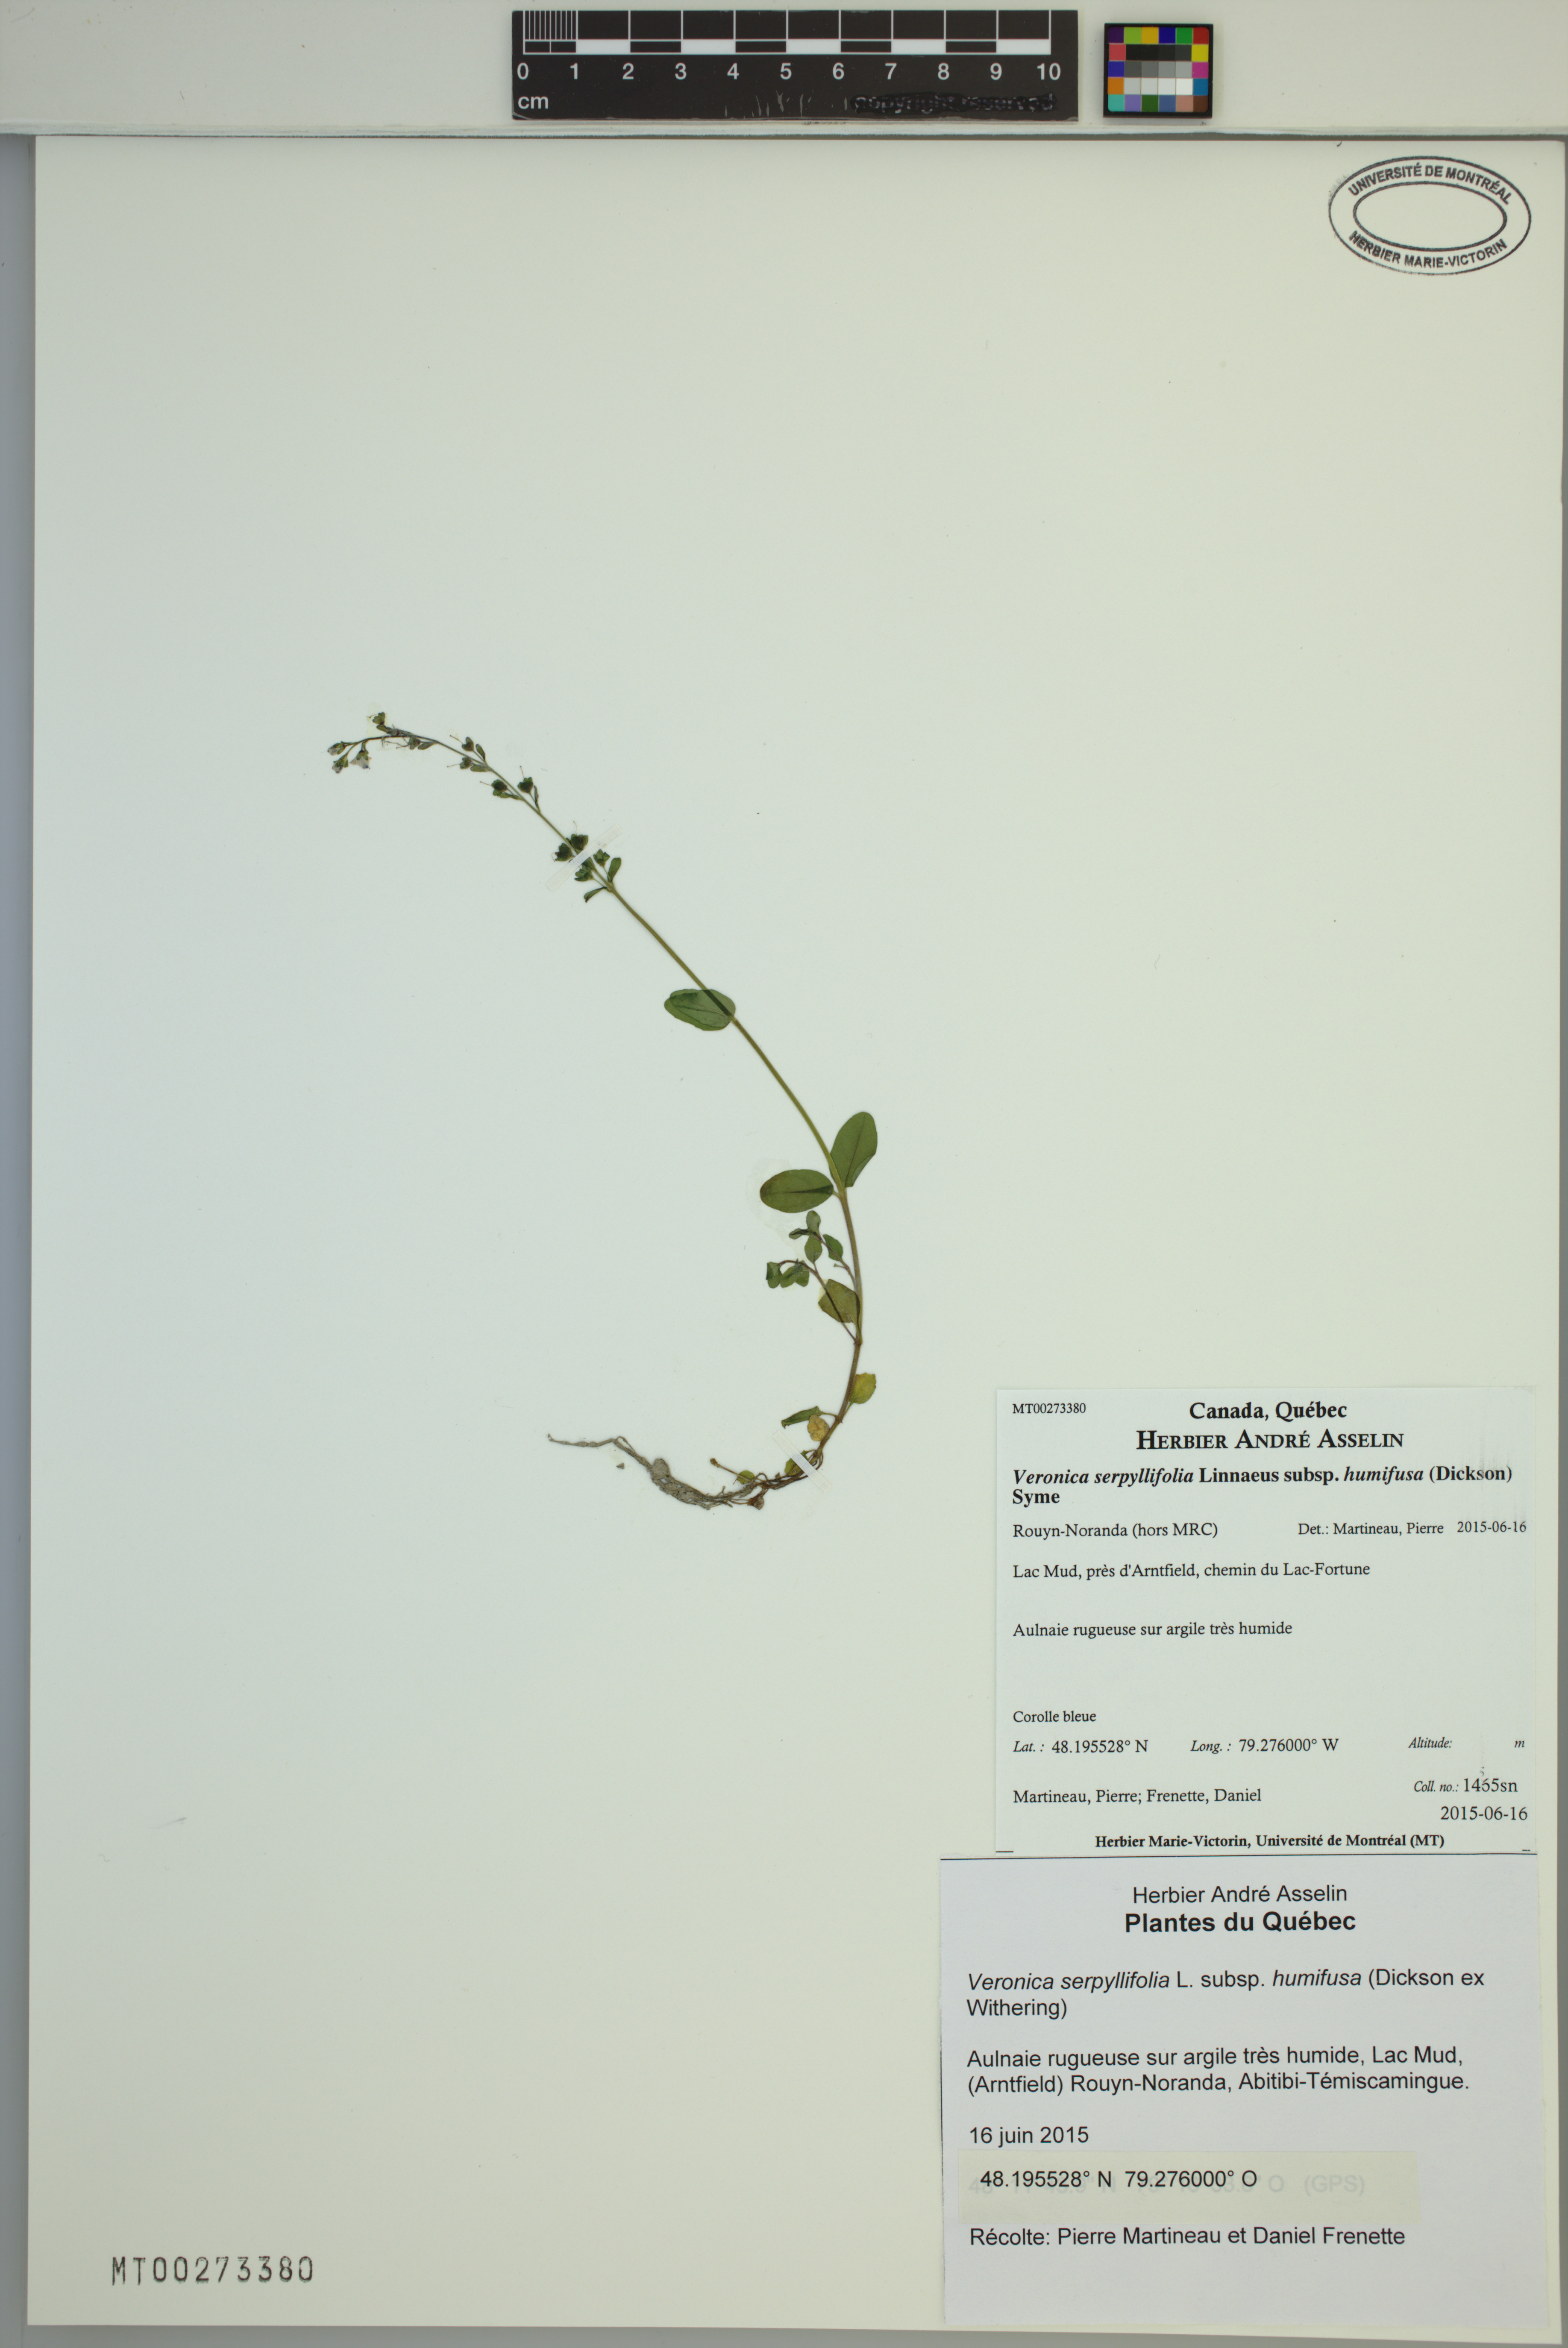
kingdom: Plantae
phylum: Tracheophyta
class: Magnoliopsida
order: Lamiales
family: Plantaginaceae
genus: Veronica
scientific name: Veronica serpyllifolia
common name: Thyme-leaved speedwell
